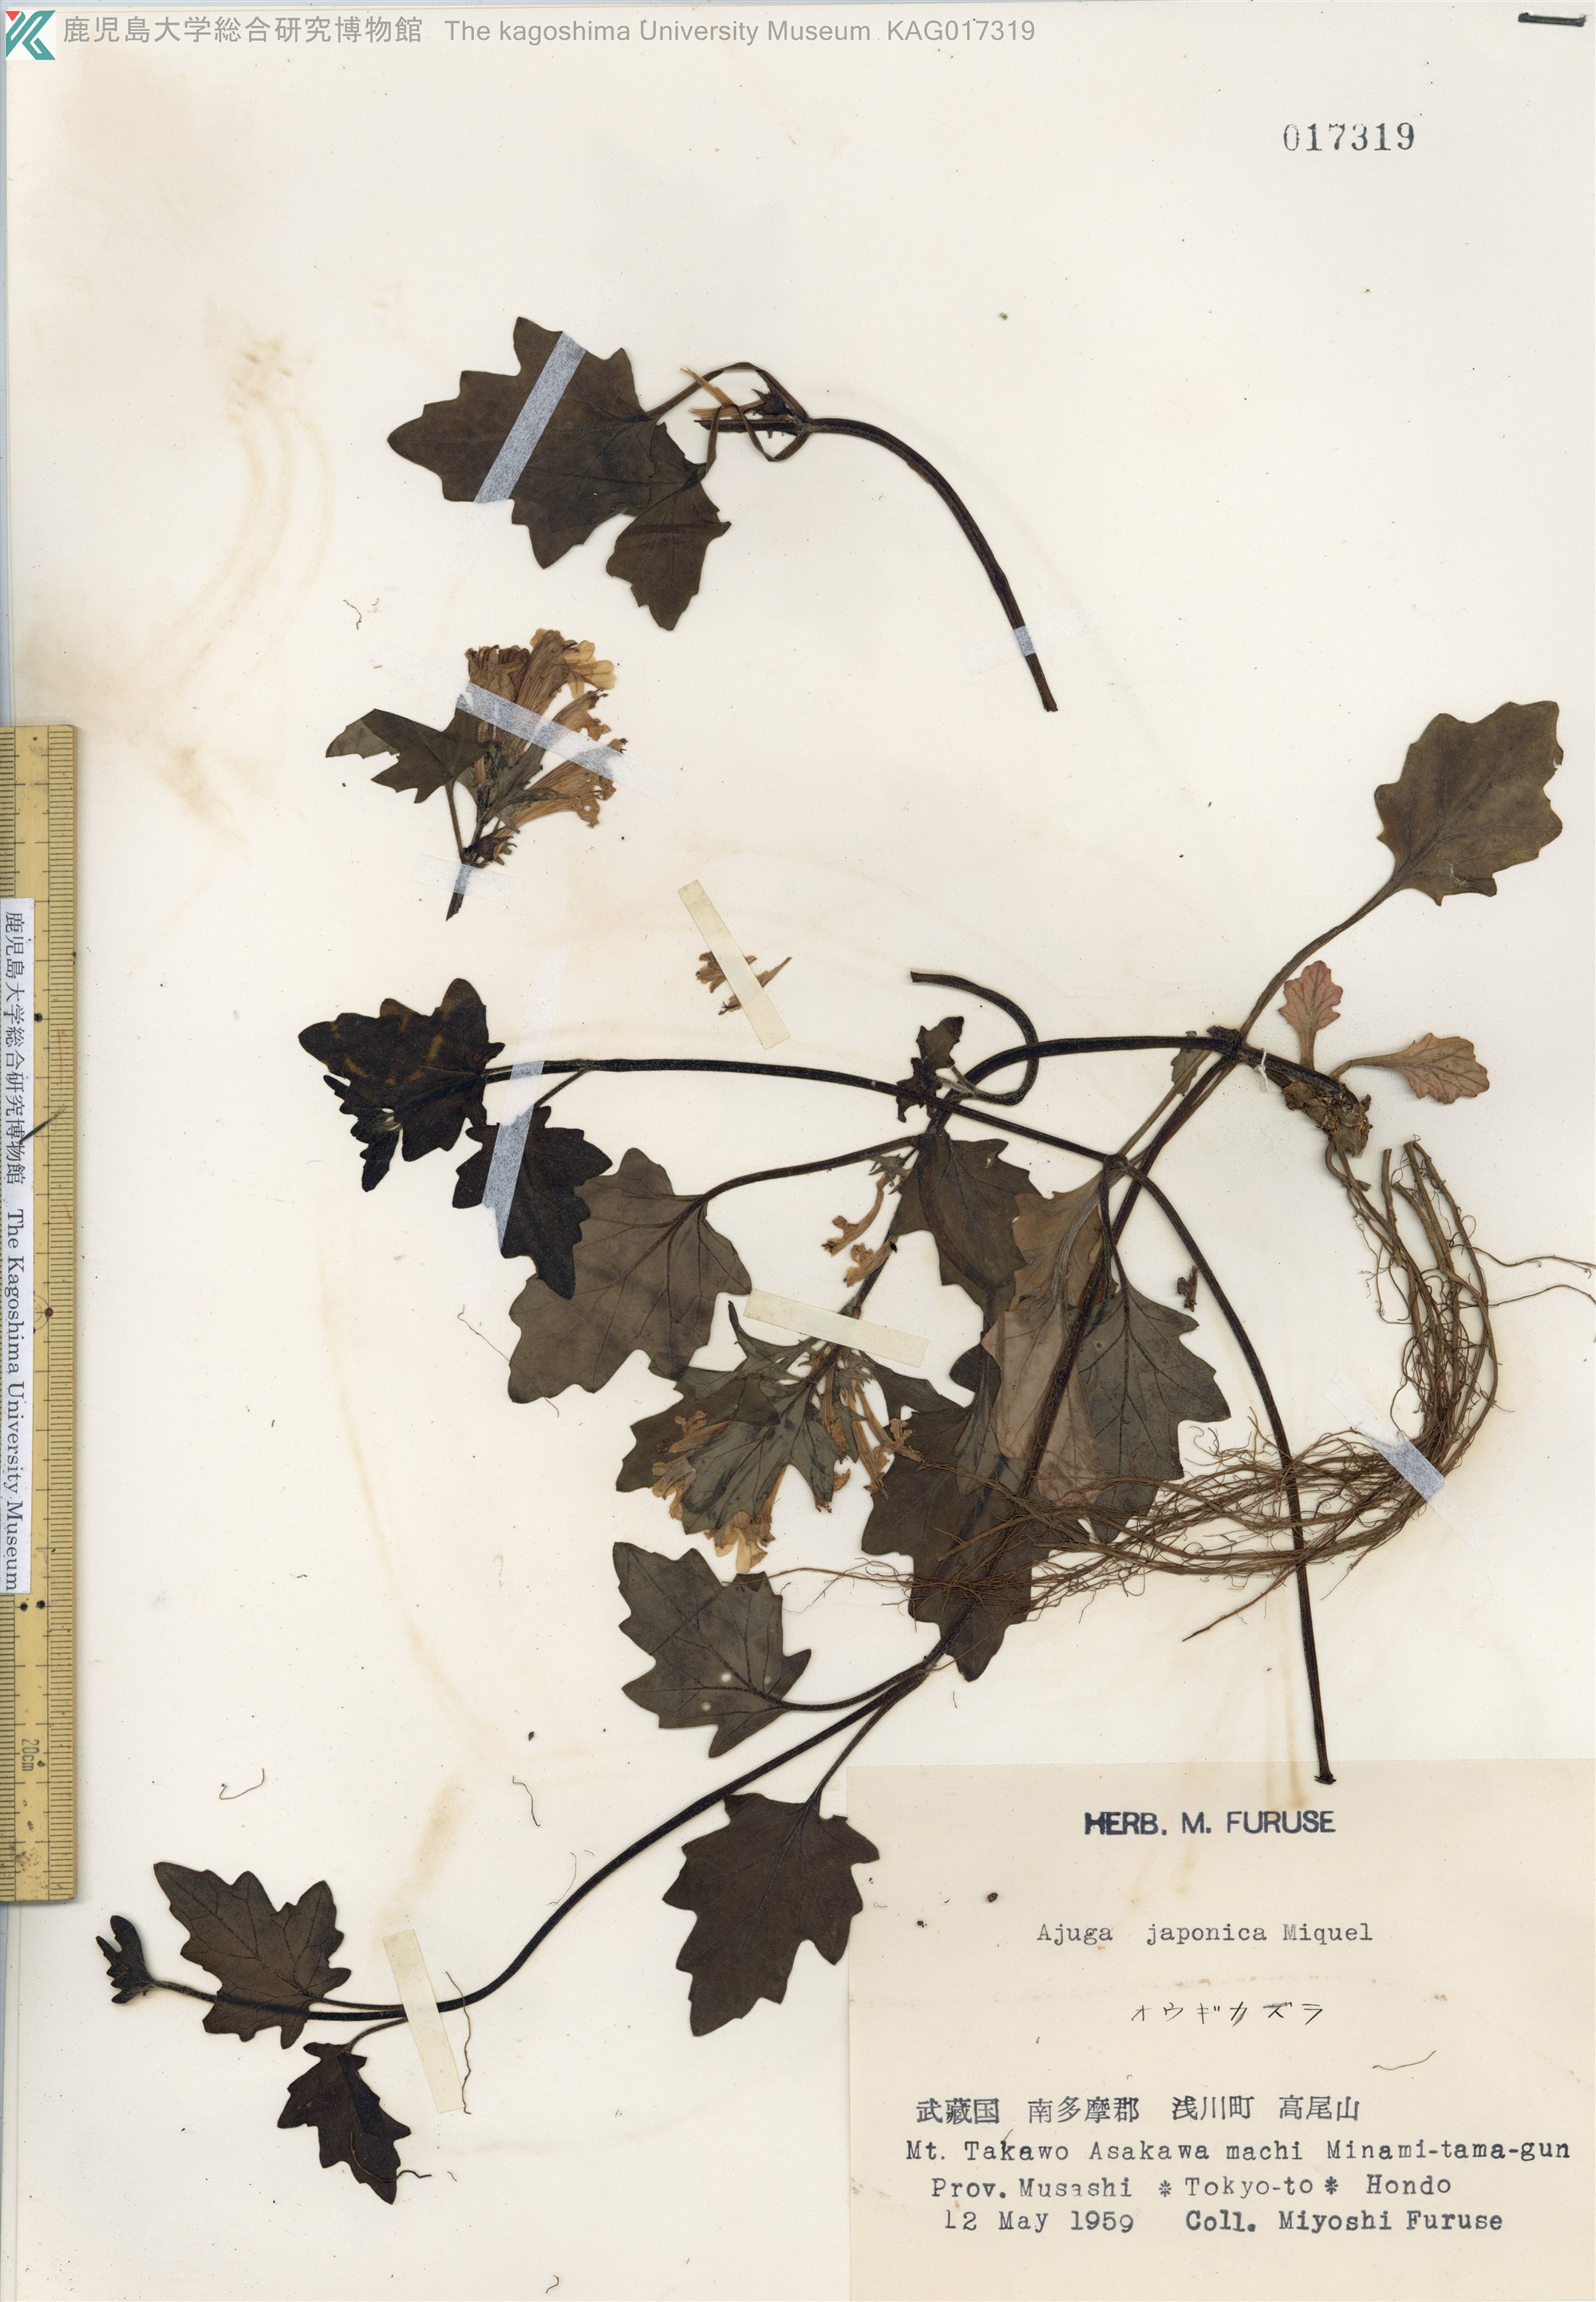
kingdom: Plantae
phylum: Tracheophyta
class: Magnoliopsida
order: Lamiales
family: Lamiaceae
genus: Ajuga
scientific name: Ajuga japonica
